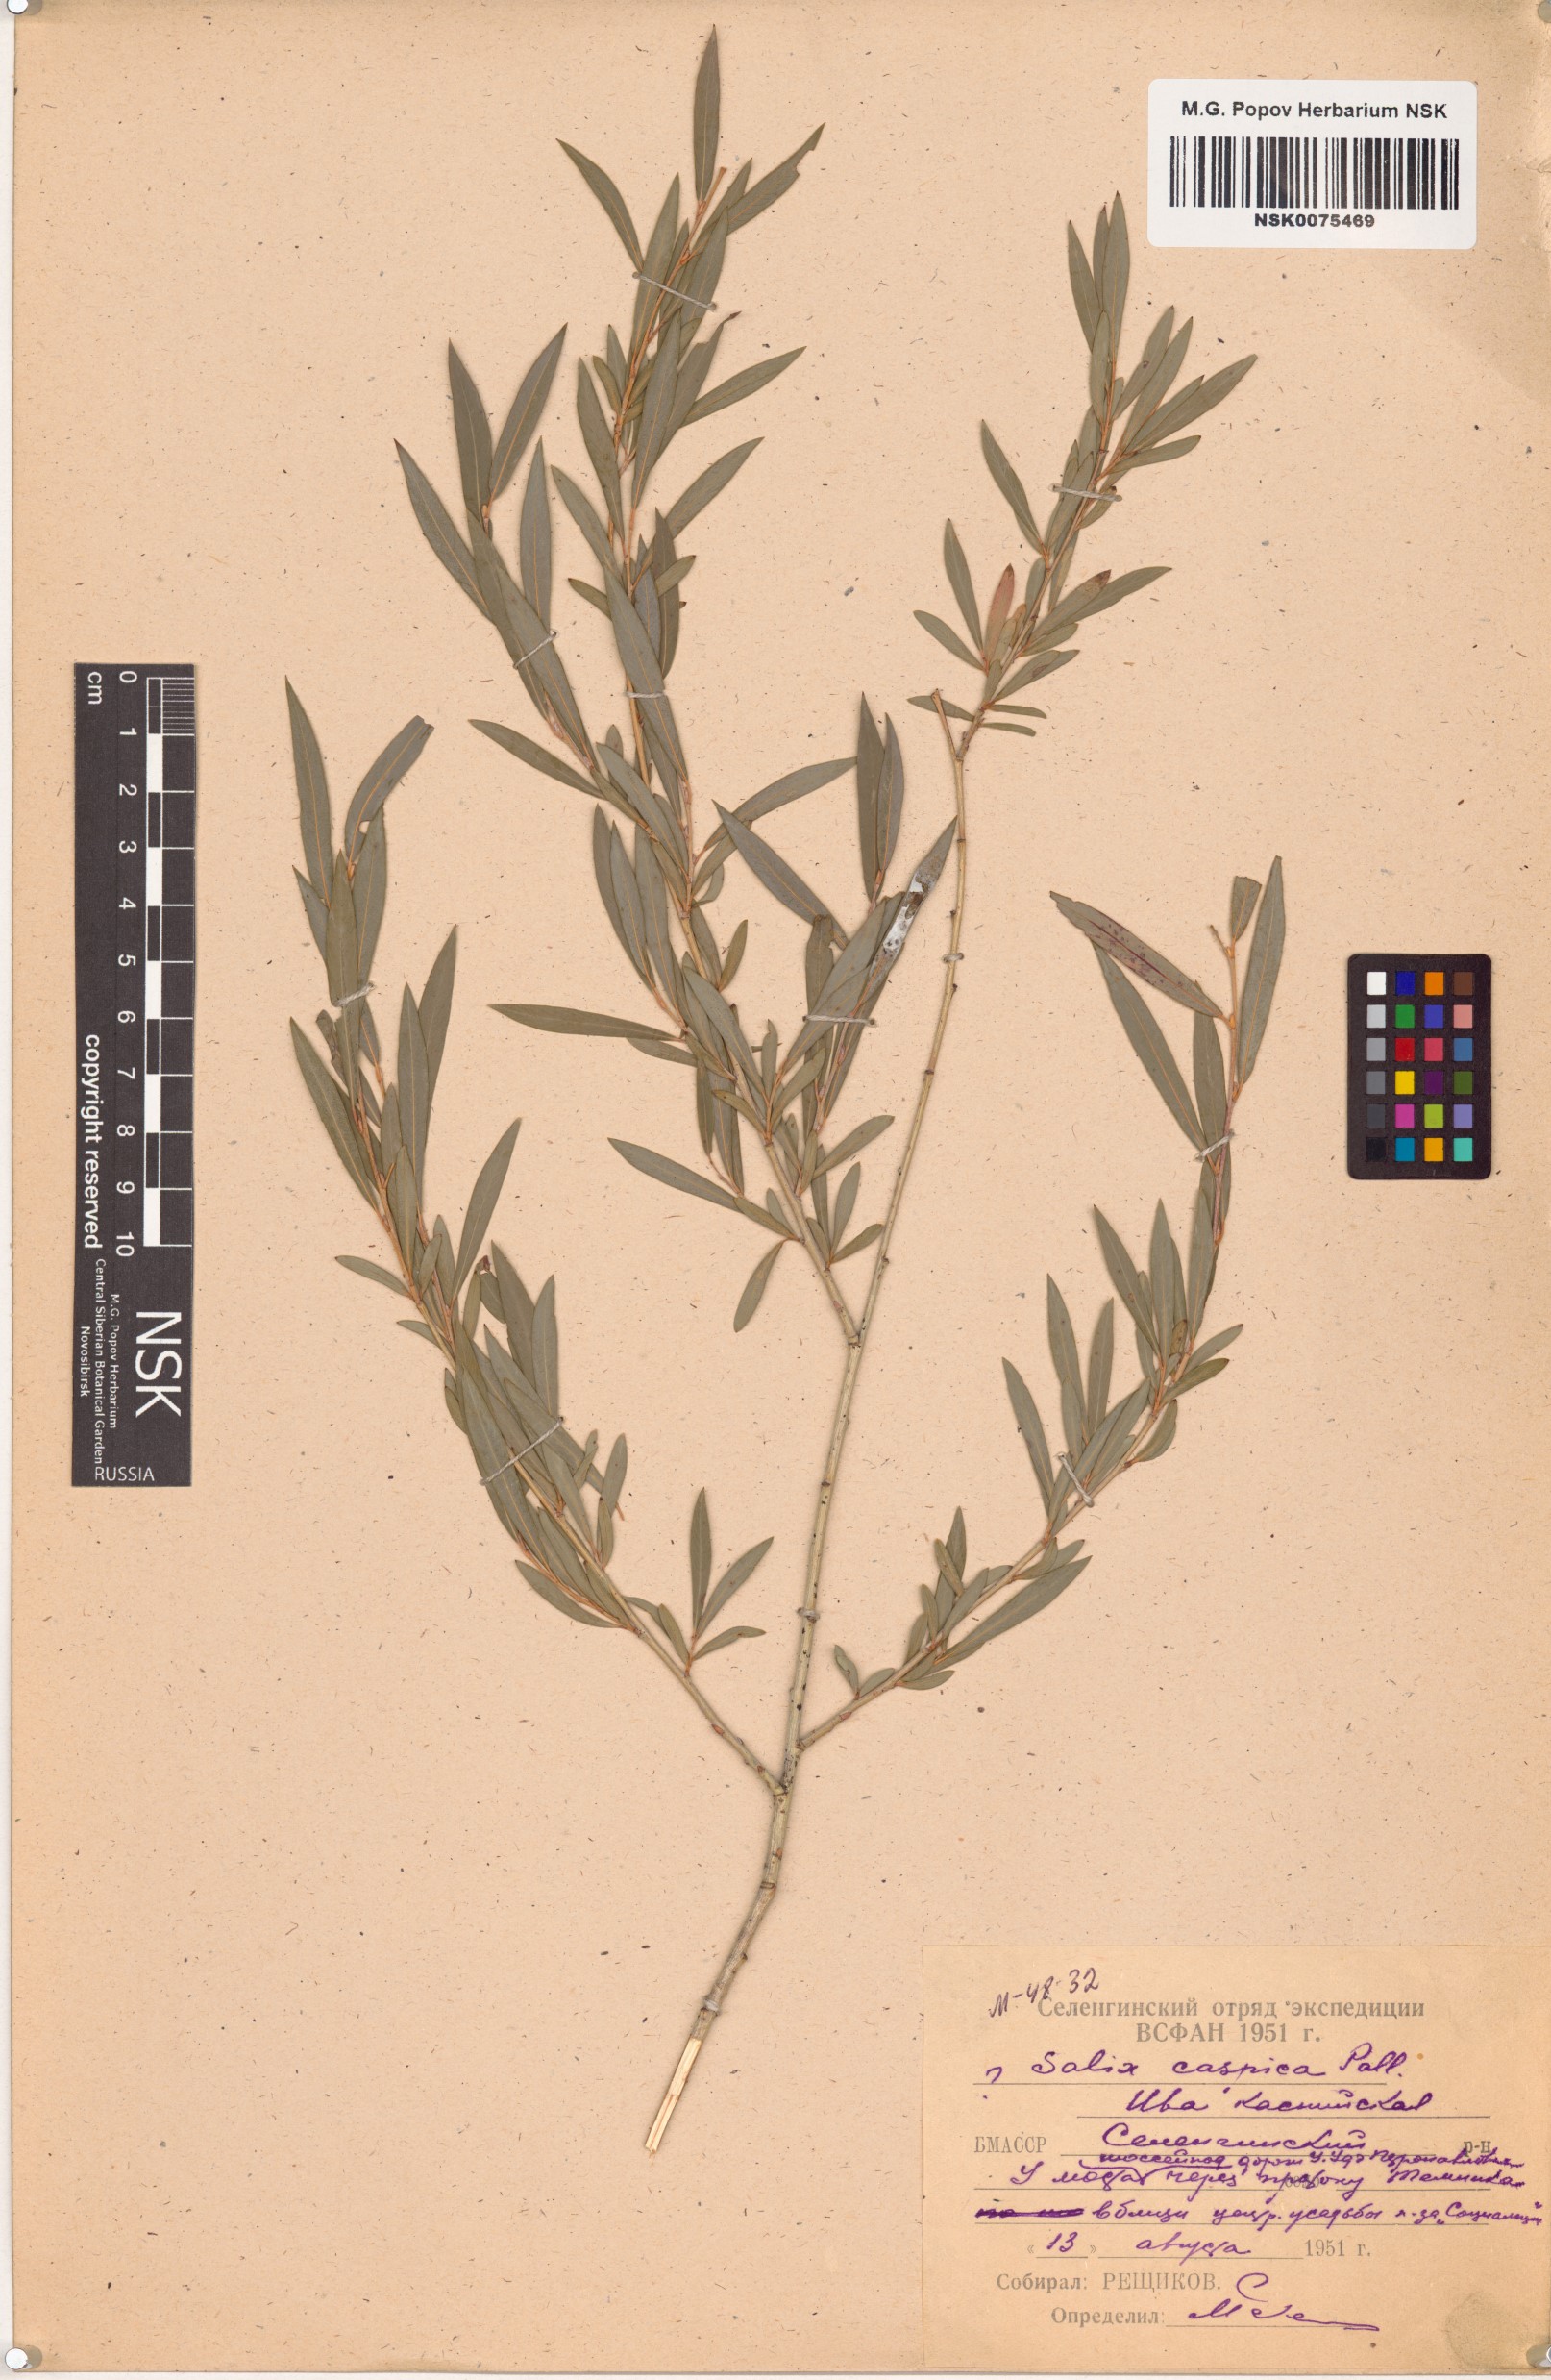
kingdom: Plantae
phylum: Tracheophyta
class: Magnoliopsida
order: Malpighiales
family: Salicaceae
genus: Salix
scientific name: Salix caspica
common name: Caspian willow
